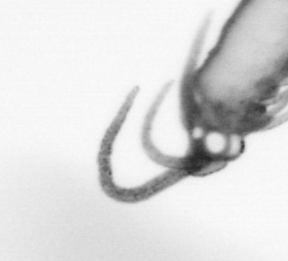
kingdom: Animalia
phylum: Arthropoda
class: Copepoda
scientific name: Copepoda
